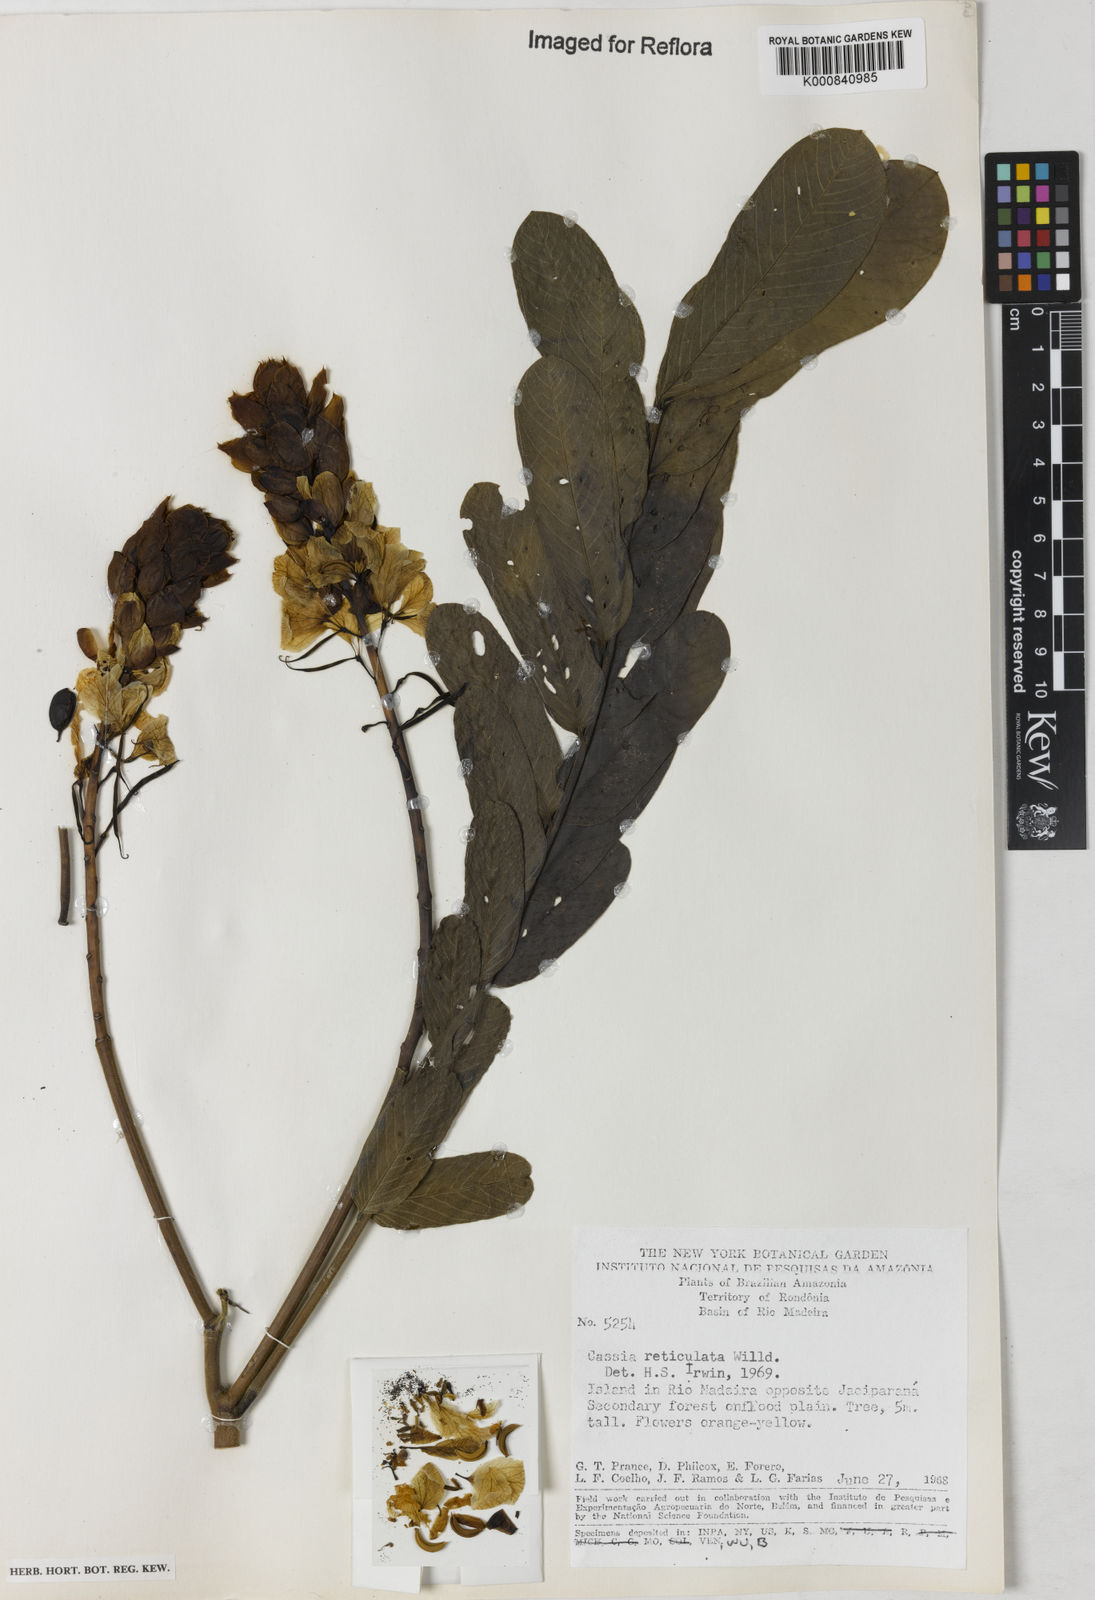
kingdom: Plantae
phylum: Tracheophyta
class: Magnoliopsida
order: Fabales
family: Fabaceae
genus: Senna
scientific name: Senna reticulata
